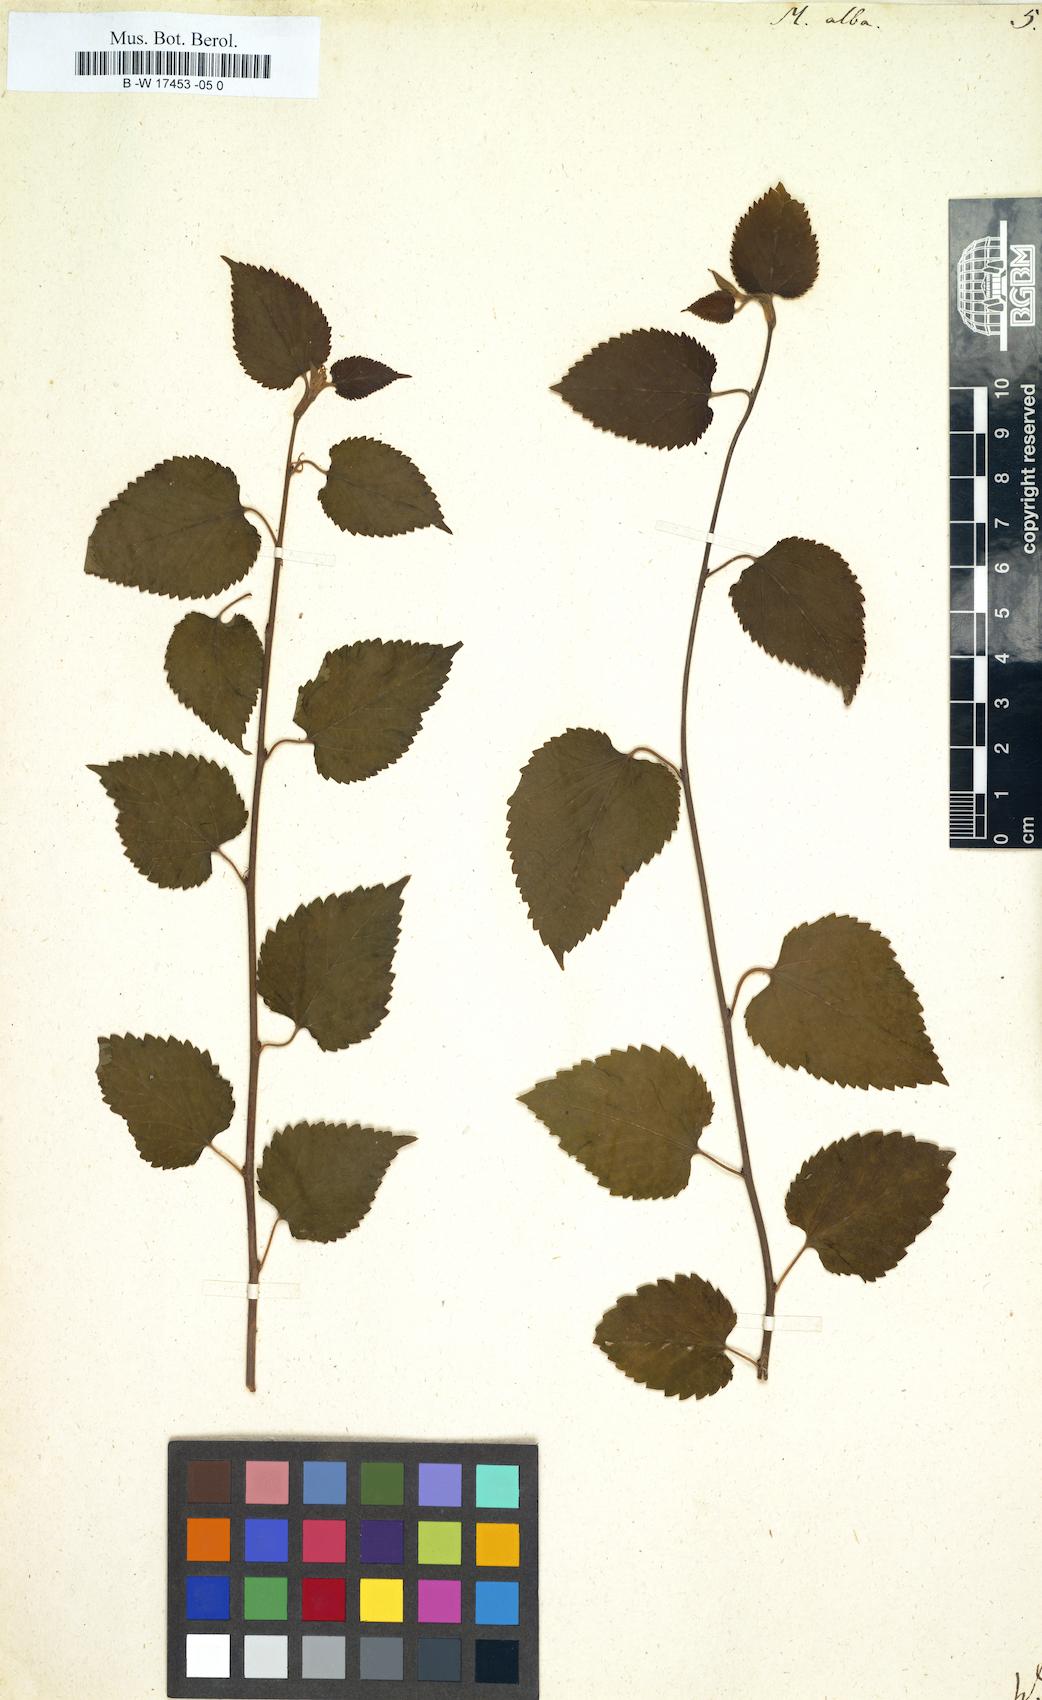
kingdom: Plantae
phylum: Tracheophyta
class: Magnoliopsida
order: Rosales
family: Moraceae
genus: Morus
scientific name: Morus alba
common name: White mulberry
